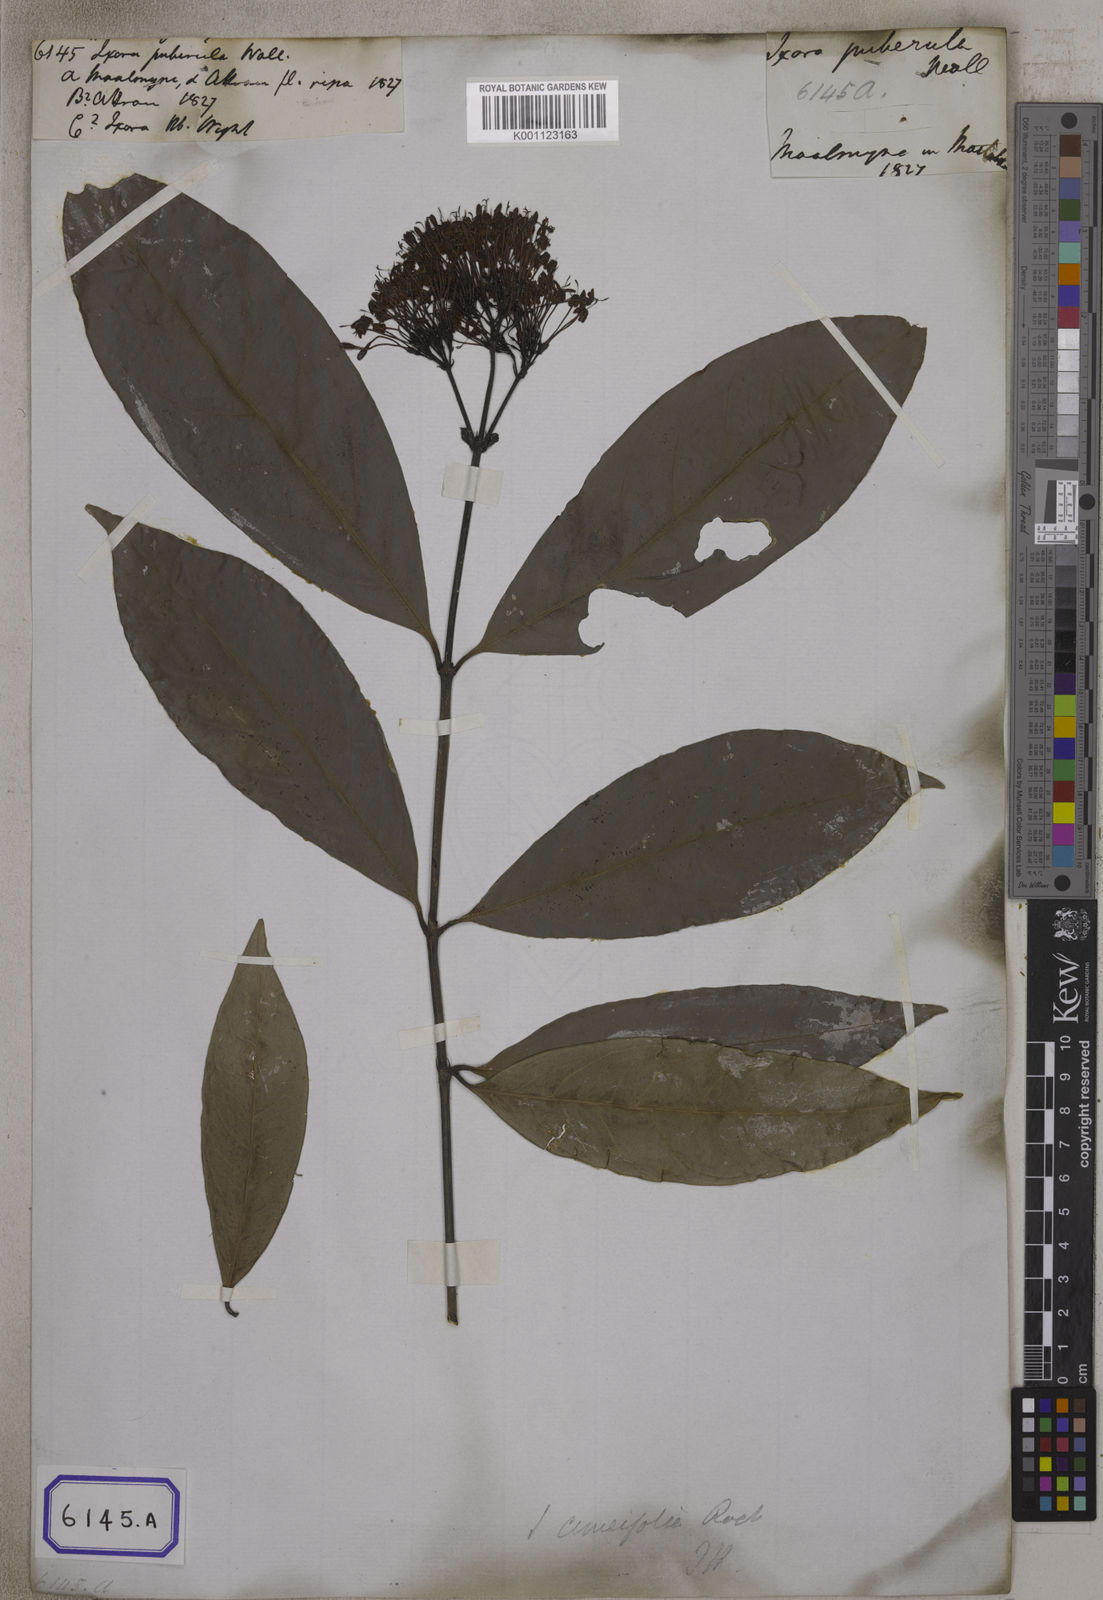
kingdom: Plantae
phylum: Tracheophyta
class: Magnoliopsida
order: Gentianales
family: Rubiaceae
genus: Ixora
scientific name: Ixora
